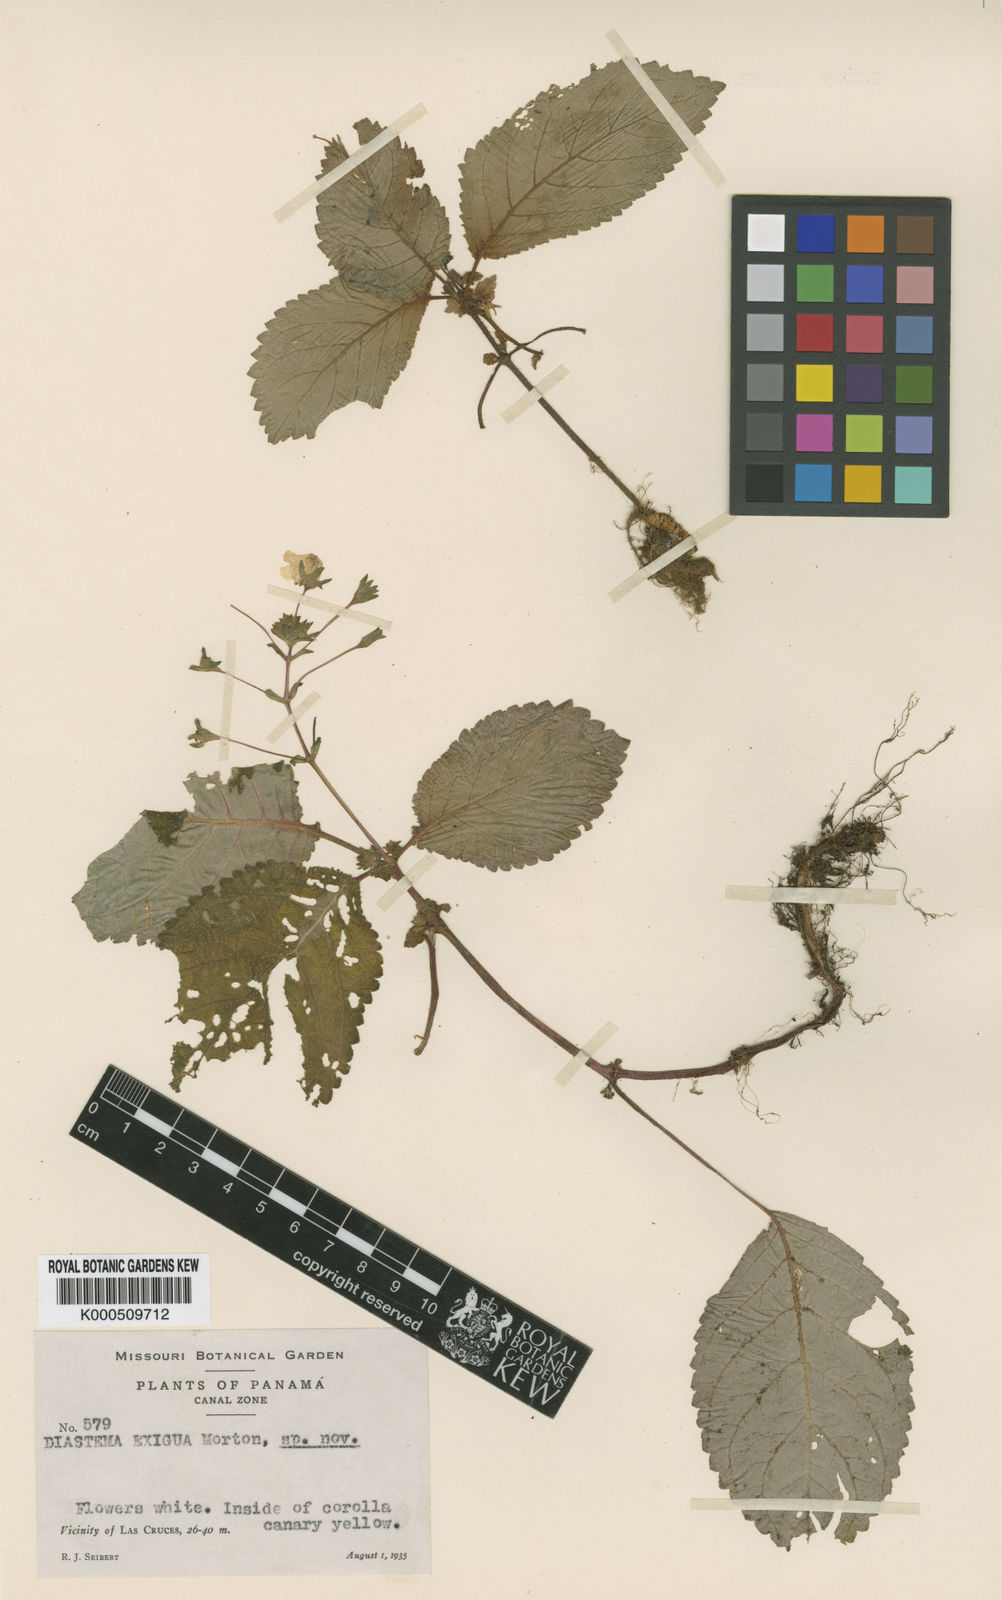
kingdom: Plantae
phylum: Tracheophyta
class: Magnoliopsida
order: Lamiales
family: Gesneriaceae
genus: Diastema
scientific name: Diastema
